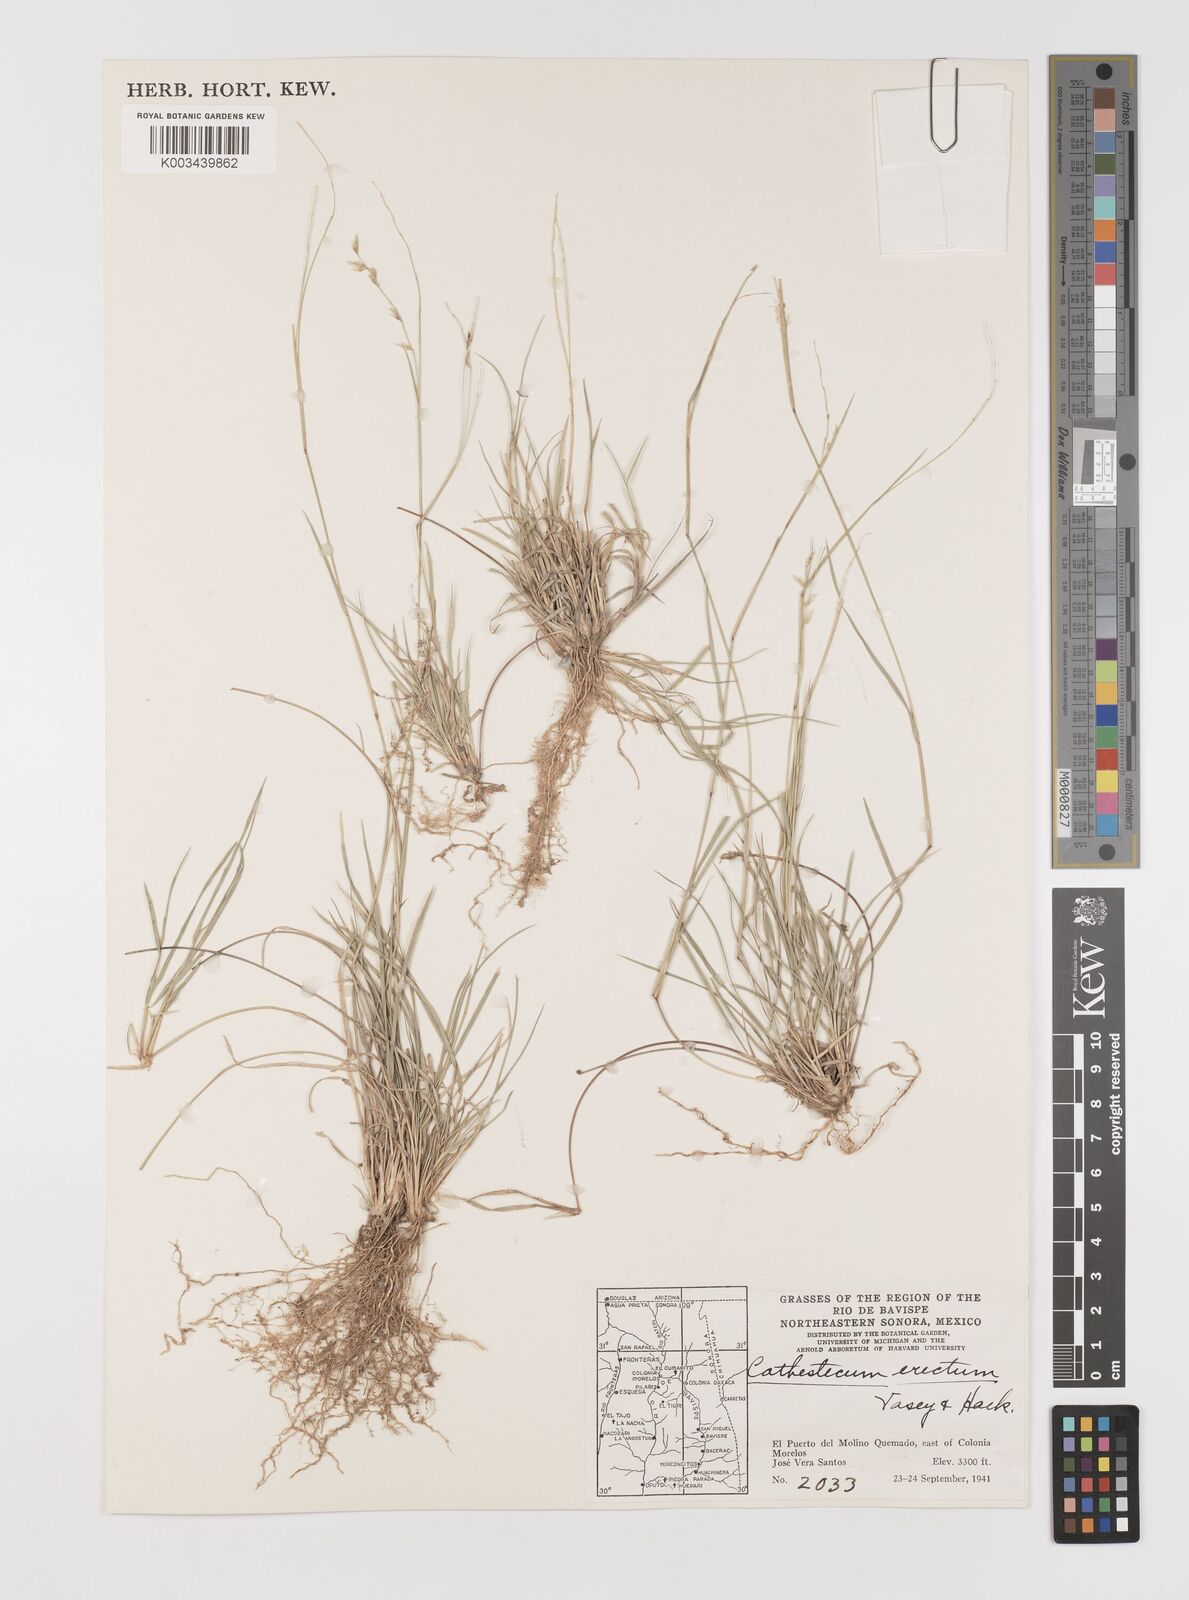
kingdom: Plantae
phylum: Tracheophyta
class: Liliopsida
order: Poales
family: Poaceae
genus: Bouteloua
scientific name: Bouteloua erecta
